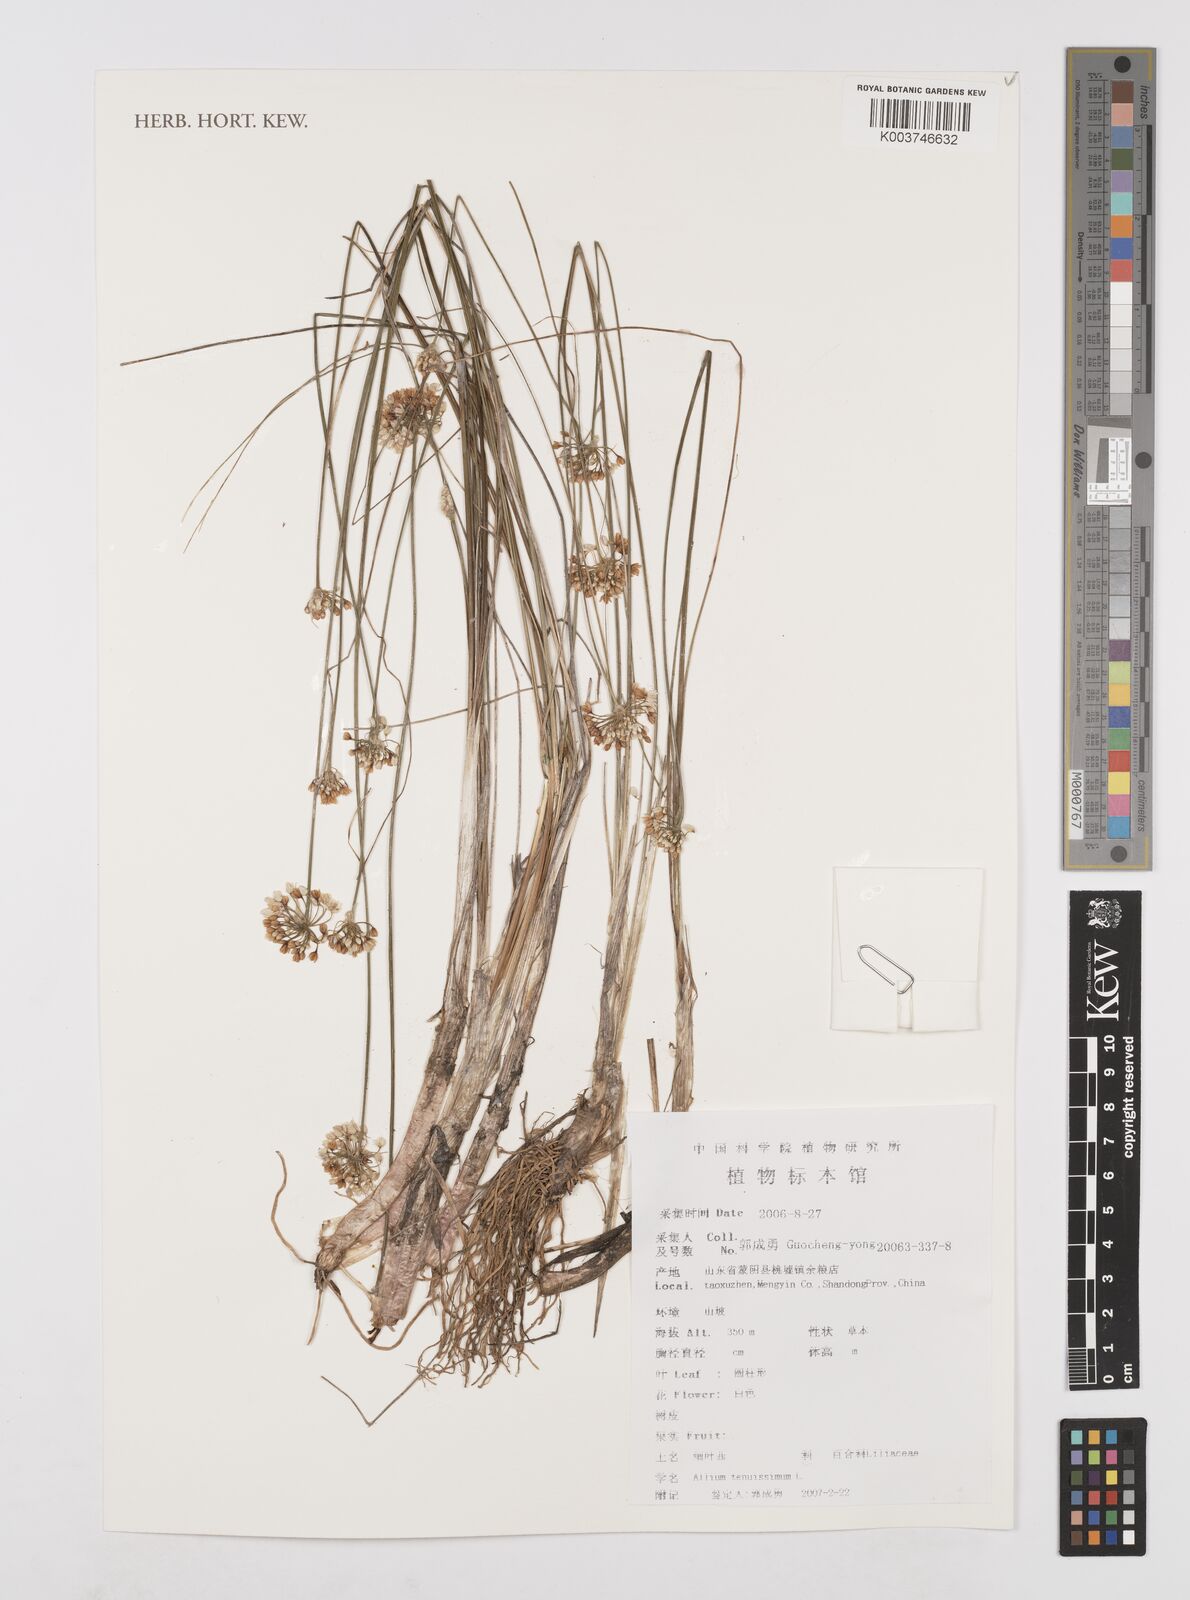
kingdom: Plantae
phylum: Tracheophyta
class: Liliopsida
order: Asparagales
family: Amaryllidaceae
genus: Allium
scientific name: Allium tenuissimum
